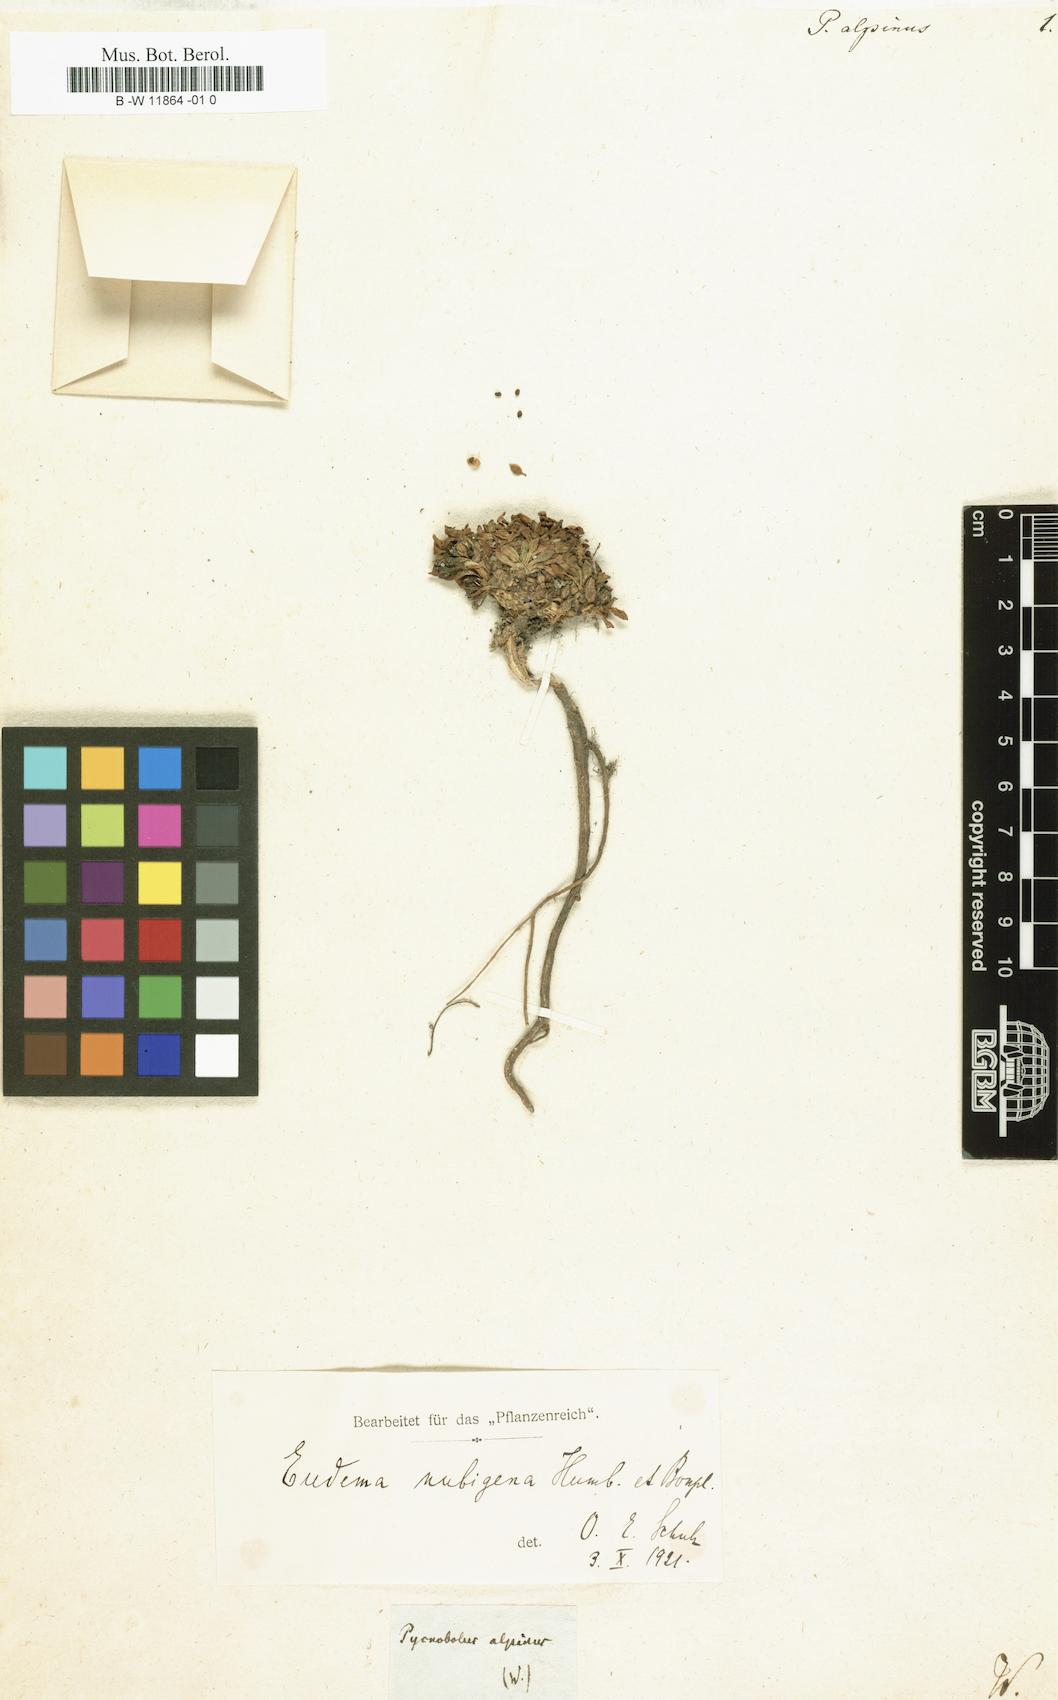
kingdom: Plantae
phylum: Tracheophyta
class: Magnoliopsida
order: Brassicales
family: Brassicaceae
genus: Eudema
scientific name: Eudema
